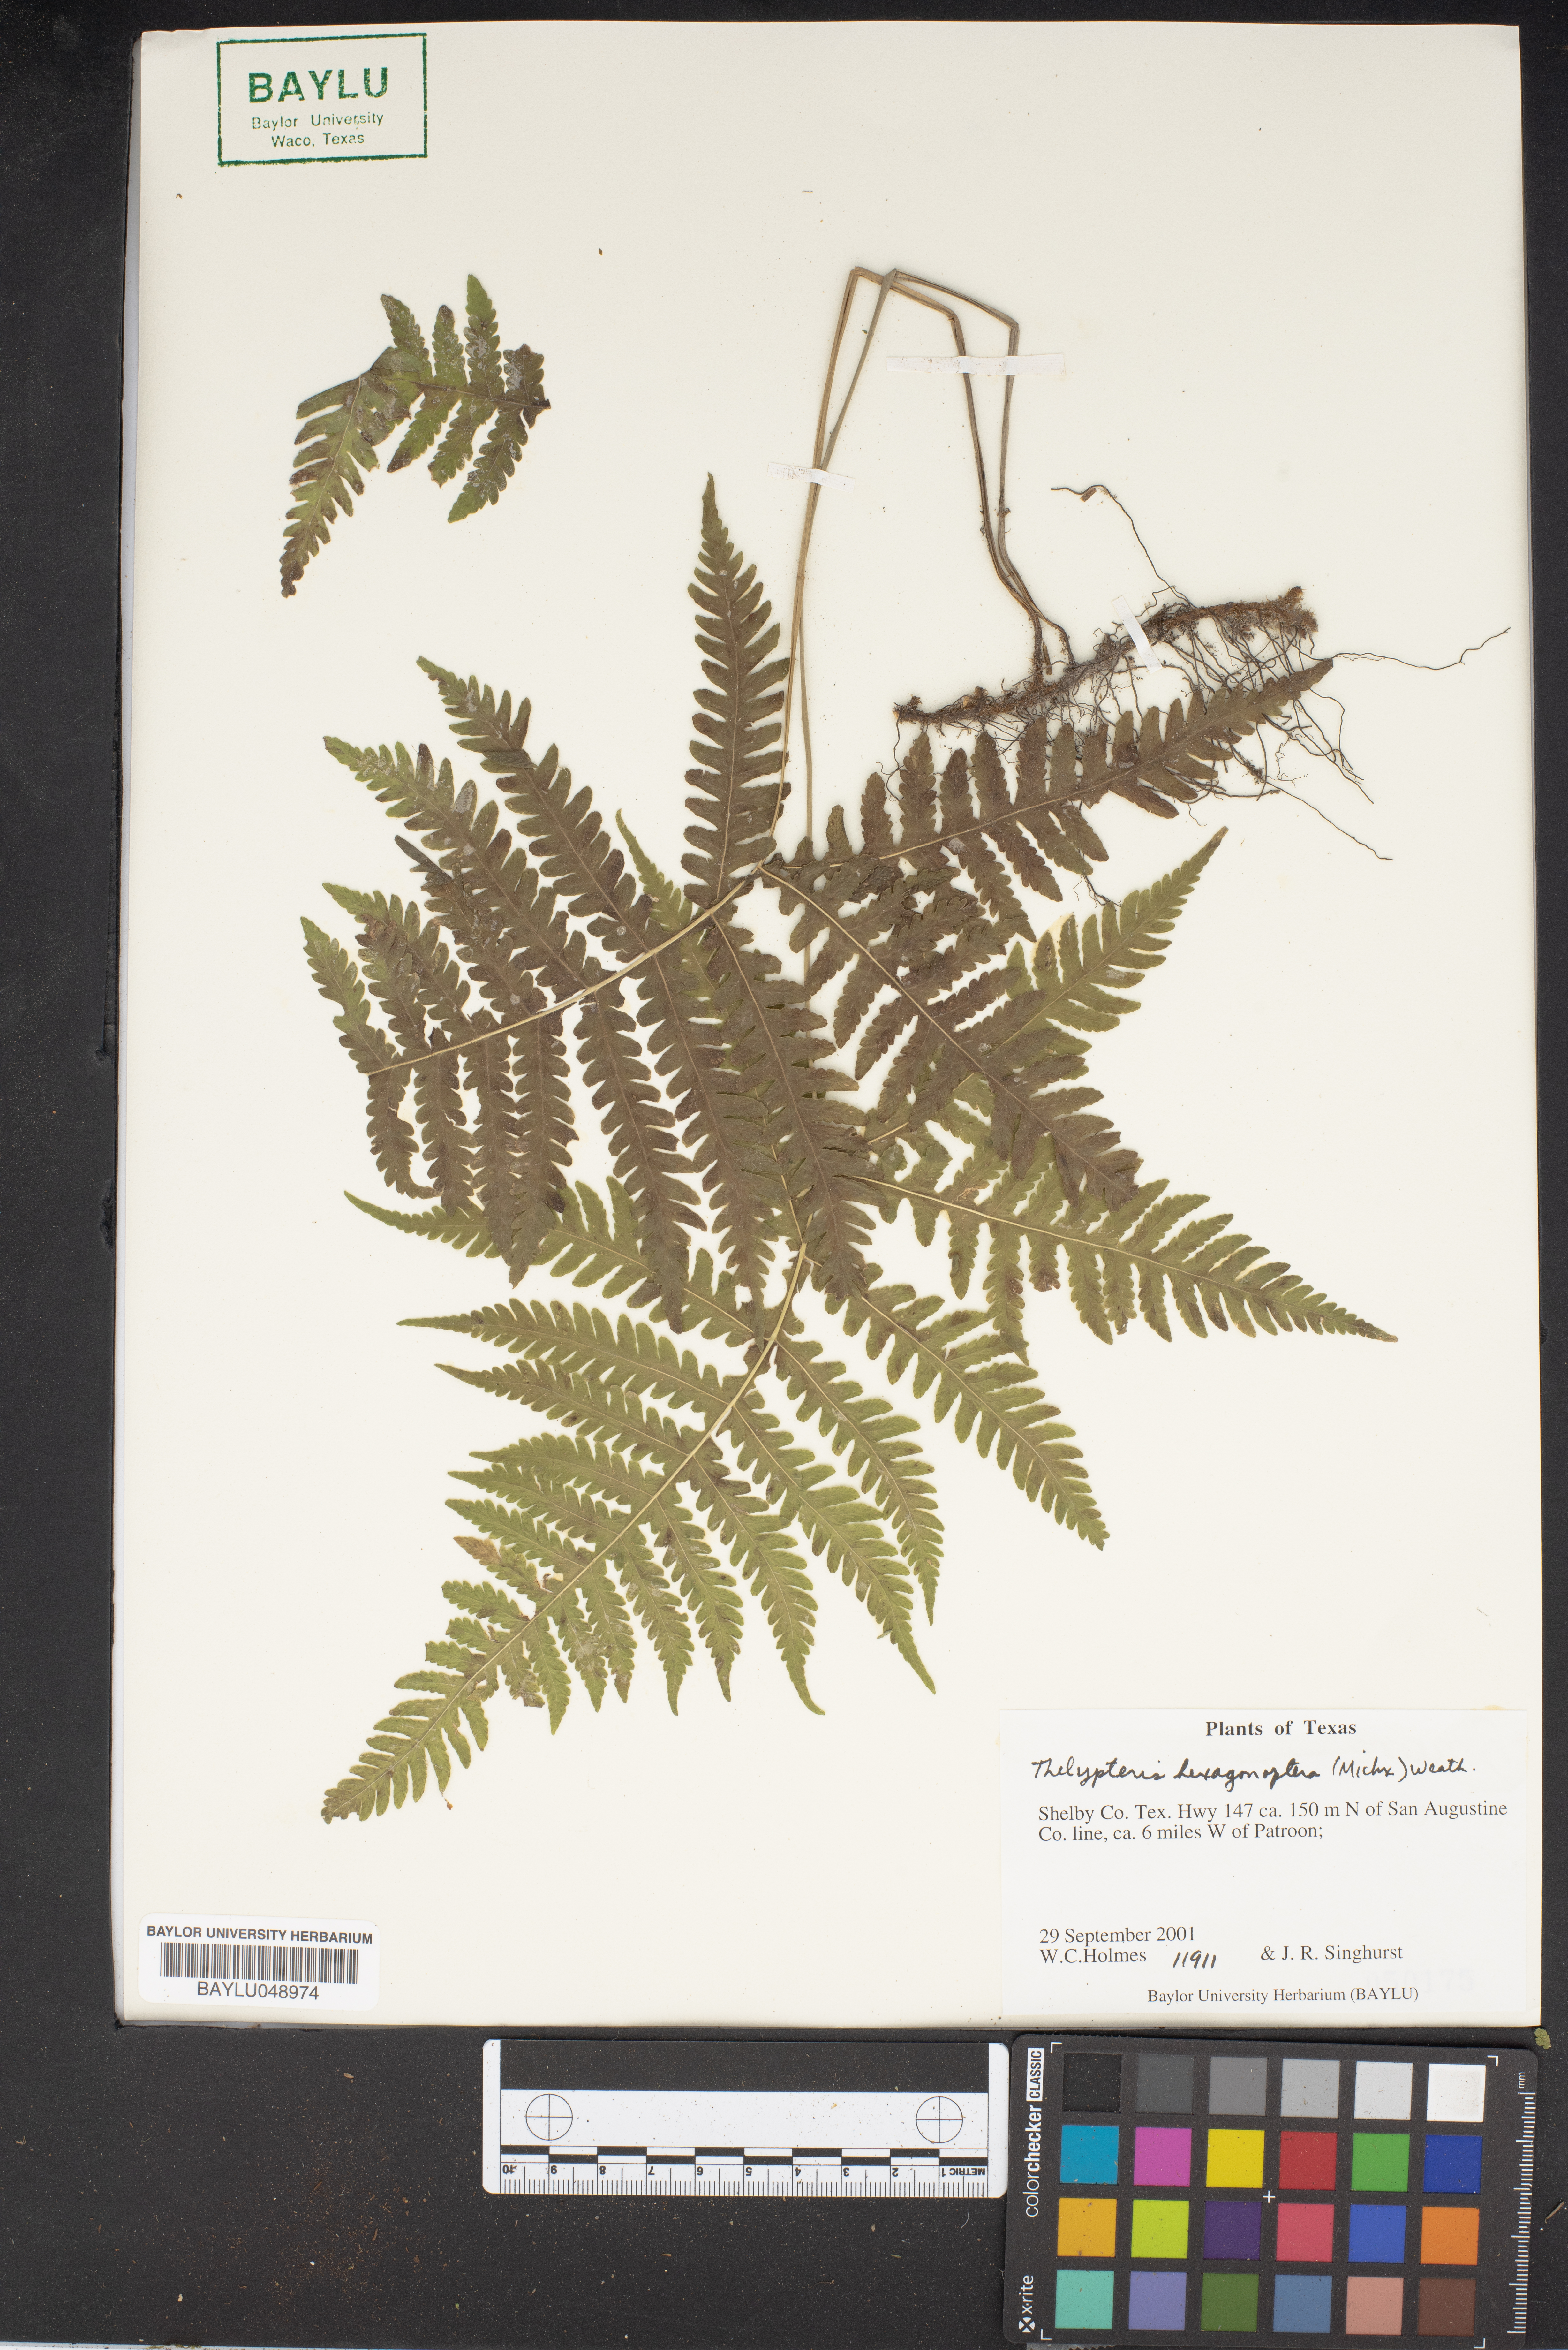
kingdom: Plantae
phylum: Tracheophyta
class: Polypodiopsida
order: Polypodiales
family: Thelypteridaceae
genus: Phegopteris
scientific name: Phegopteris hexagonoptera
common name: Broad beech fern
